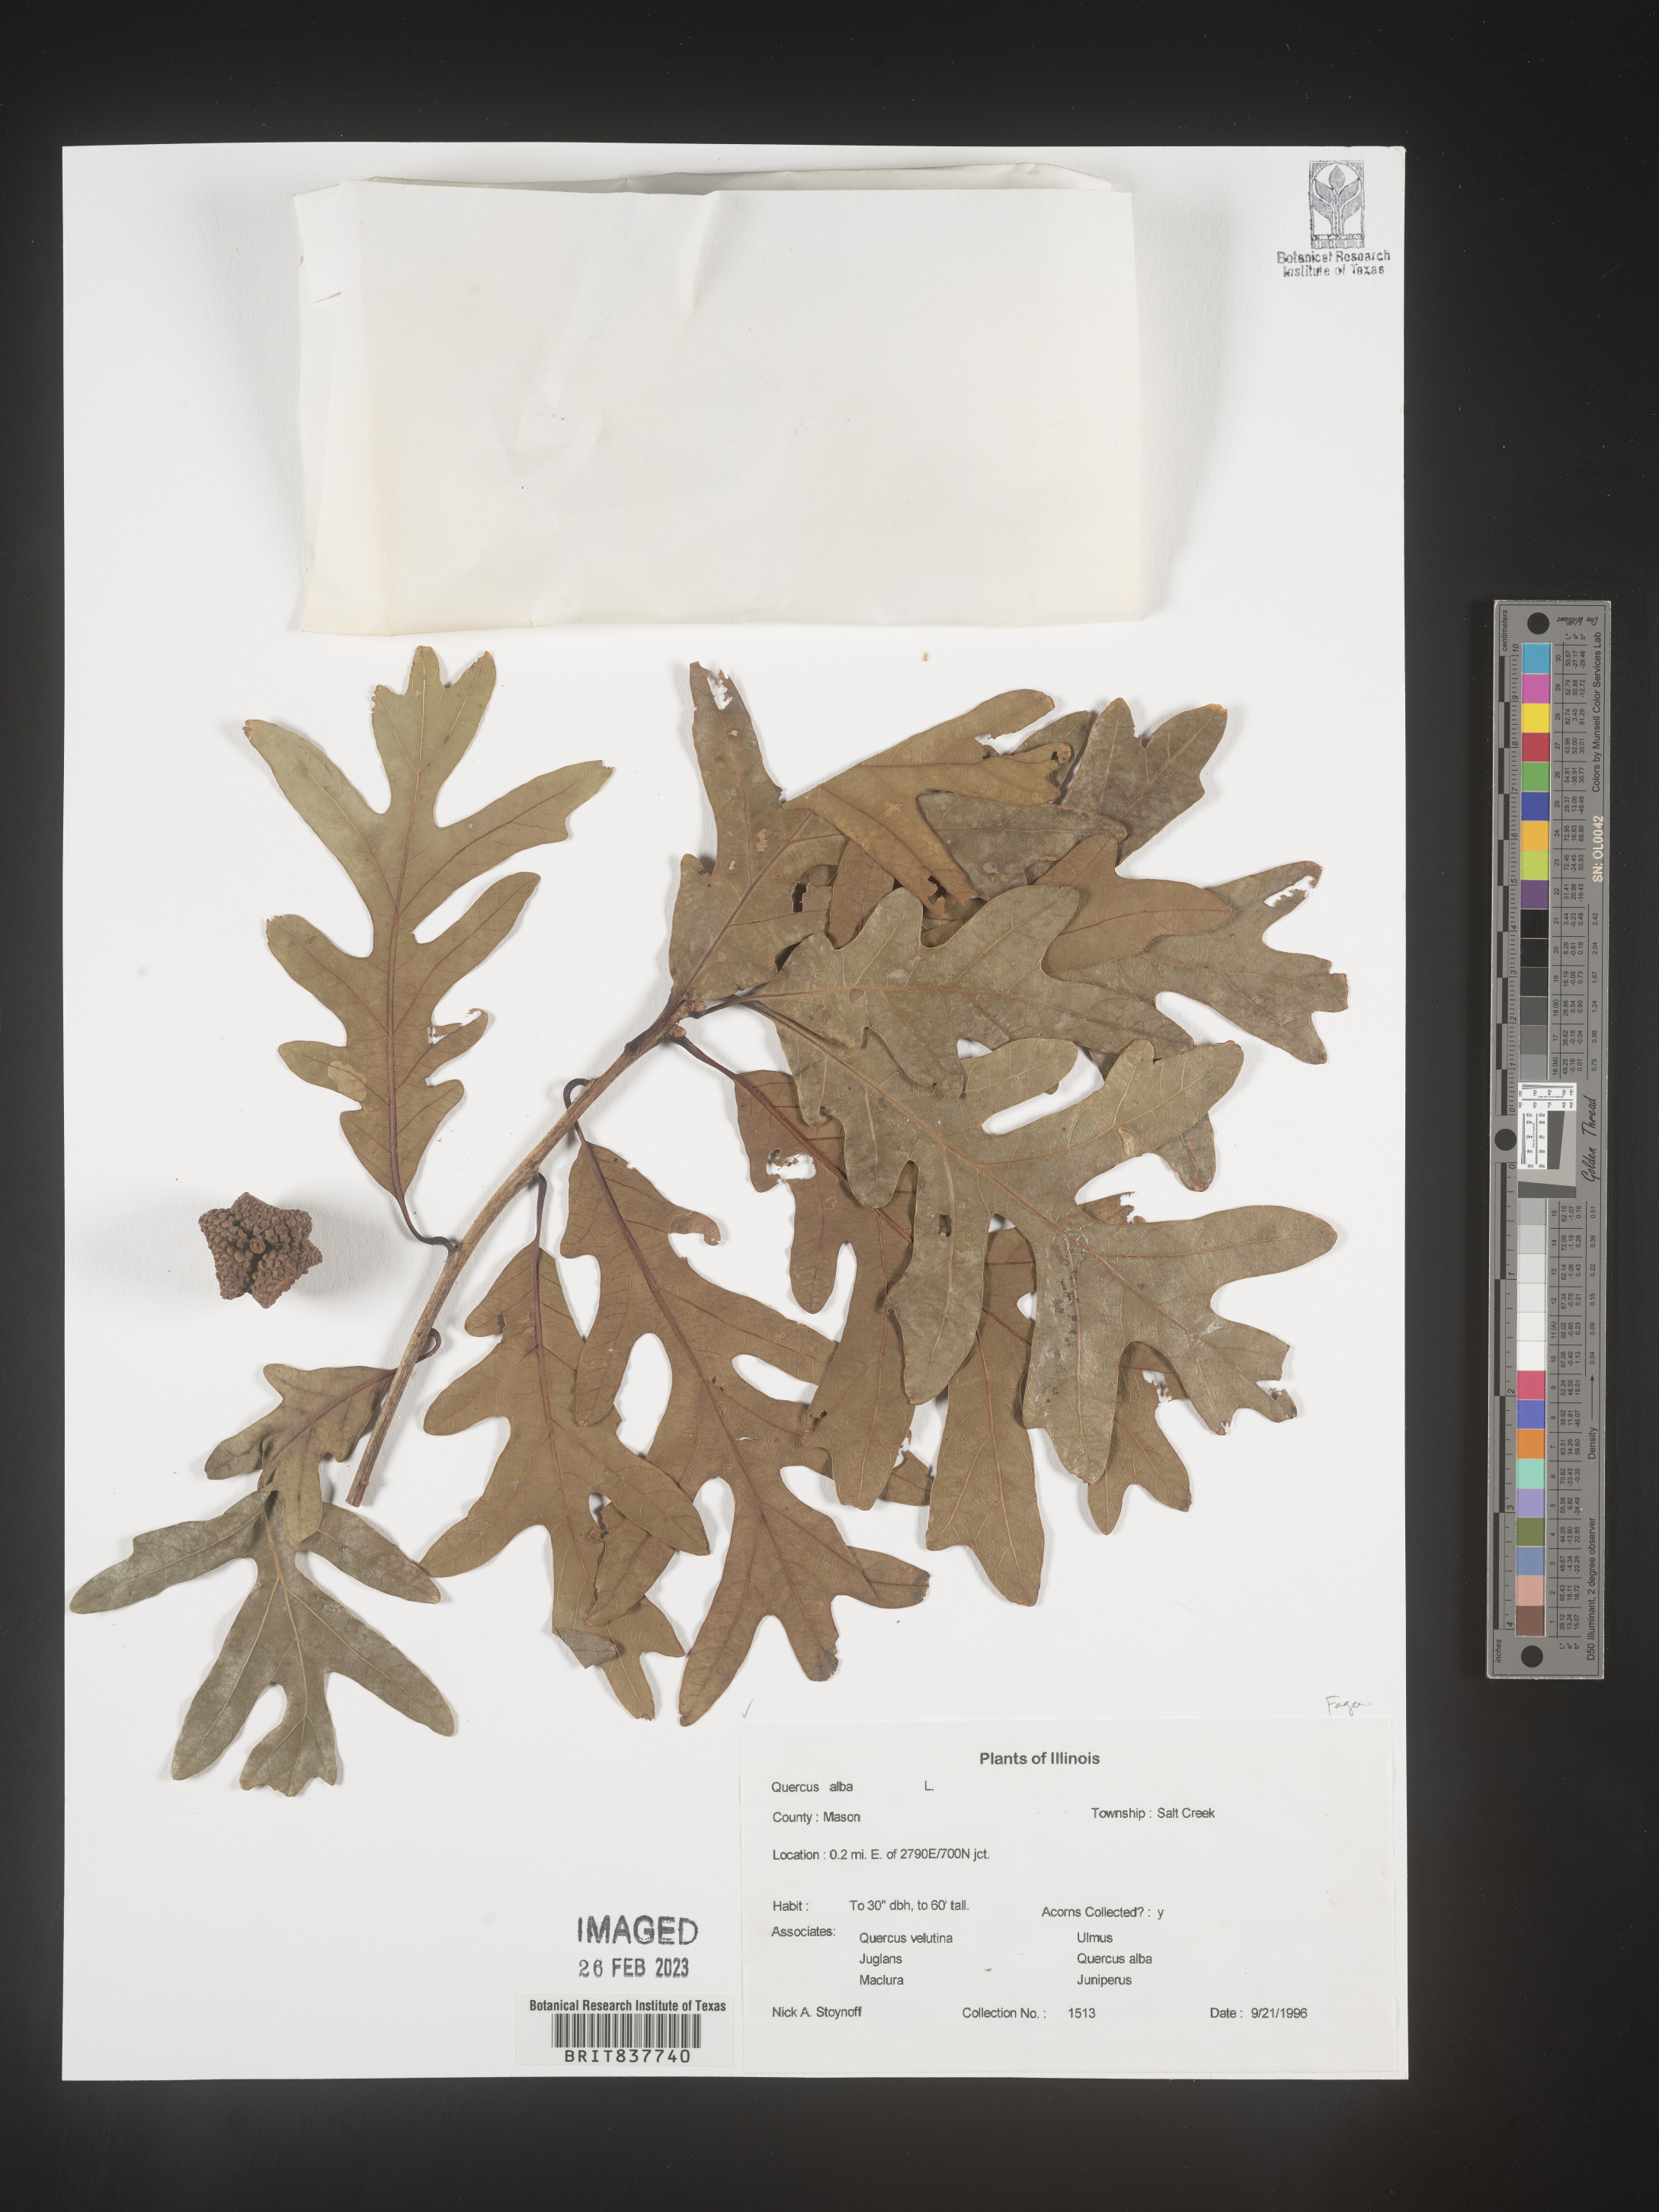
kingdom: Plantae
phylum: Tracheophyta
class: Magnoliopsida
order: Fagales
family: Fagaceae
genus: Quercus
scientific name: Quercus alba
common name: White oak
